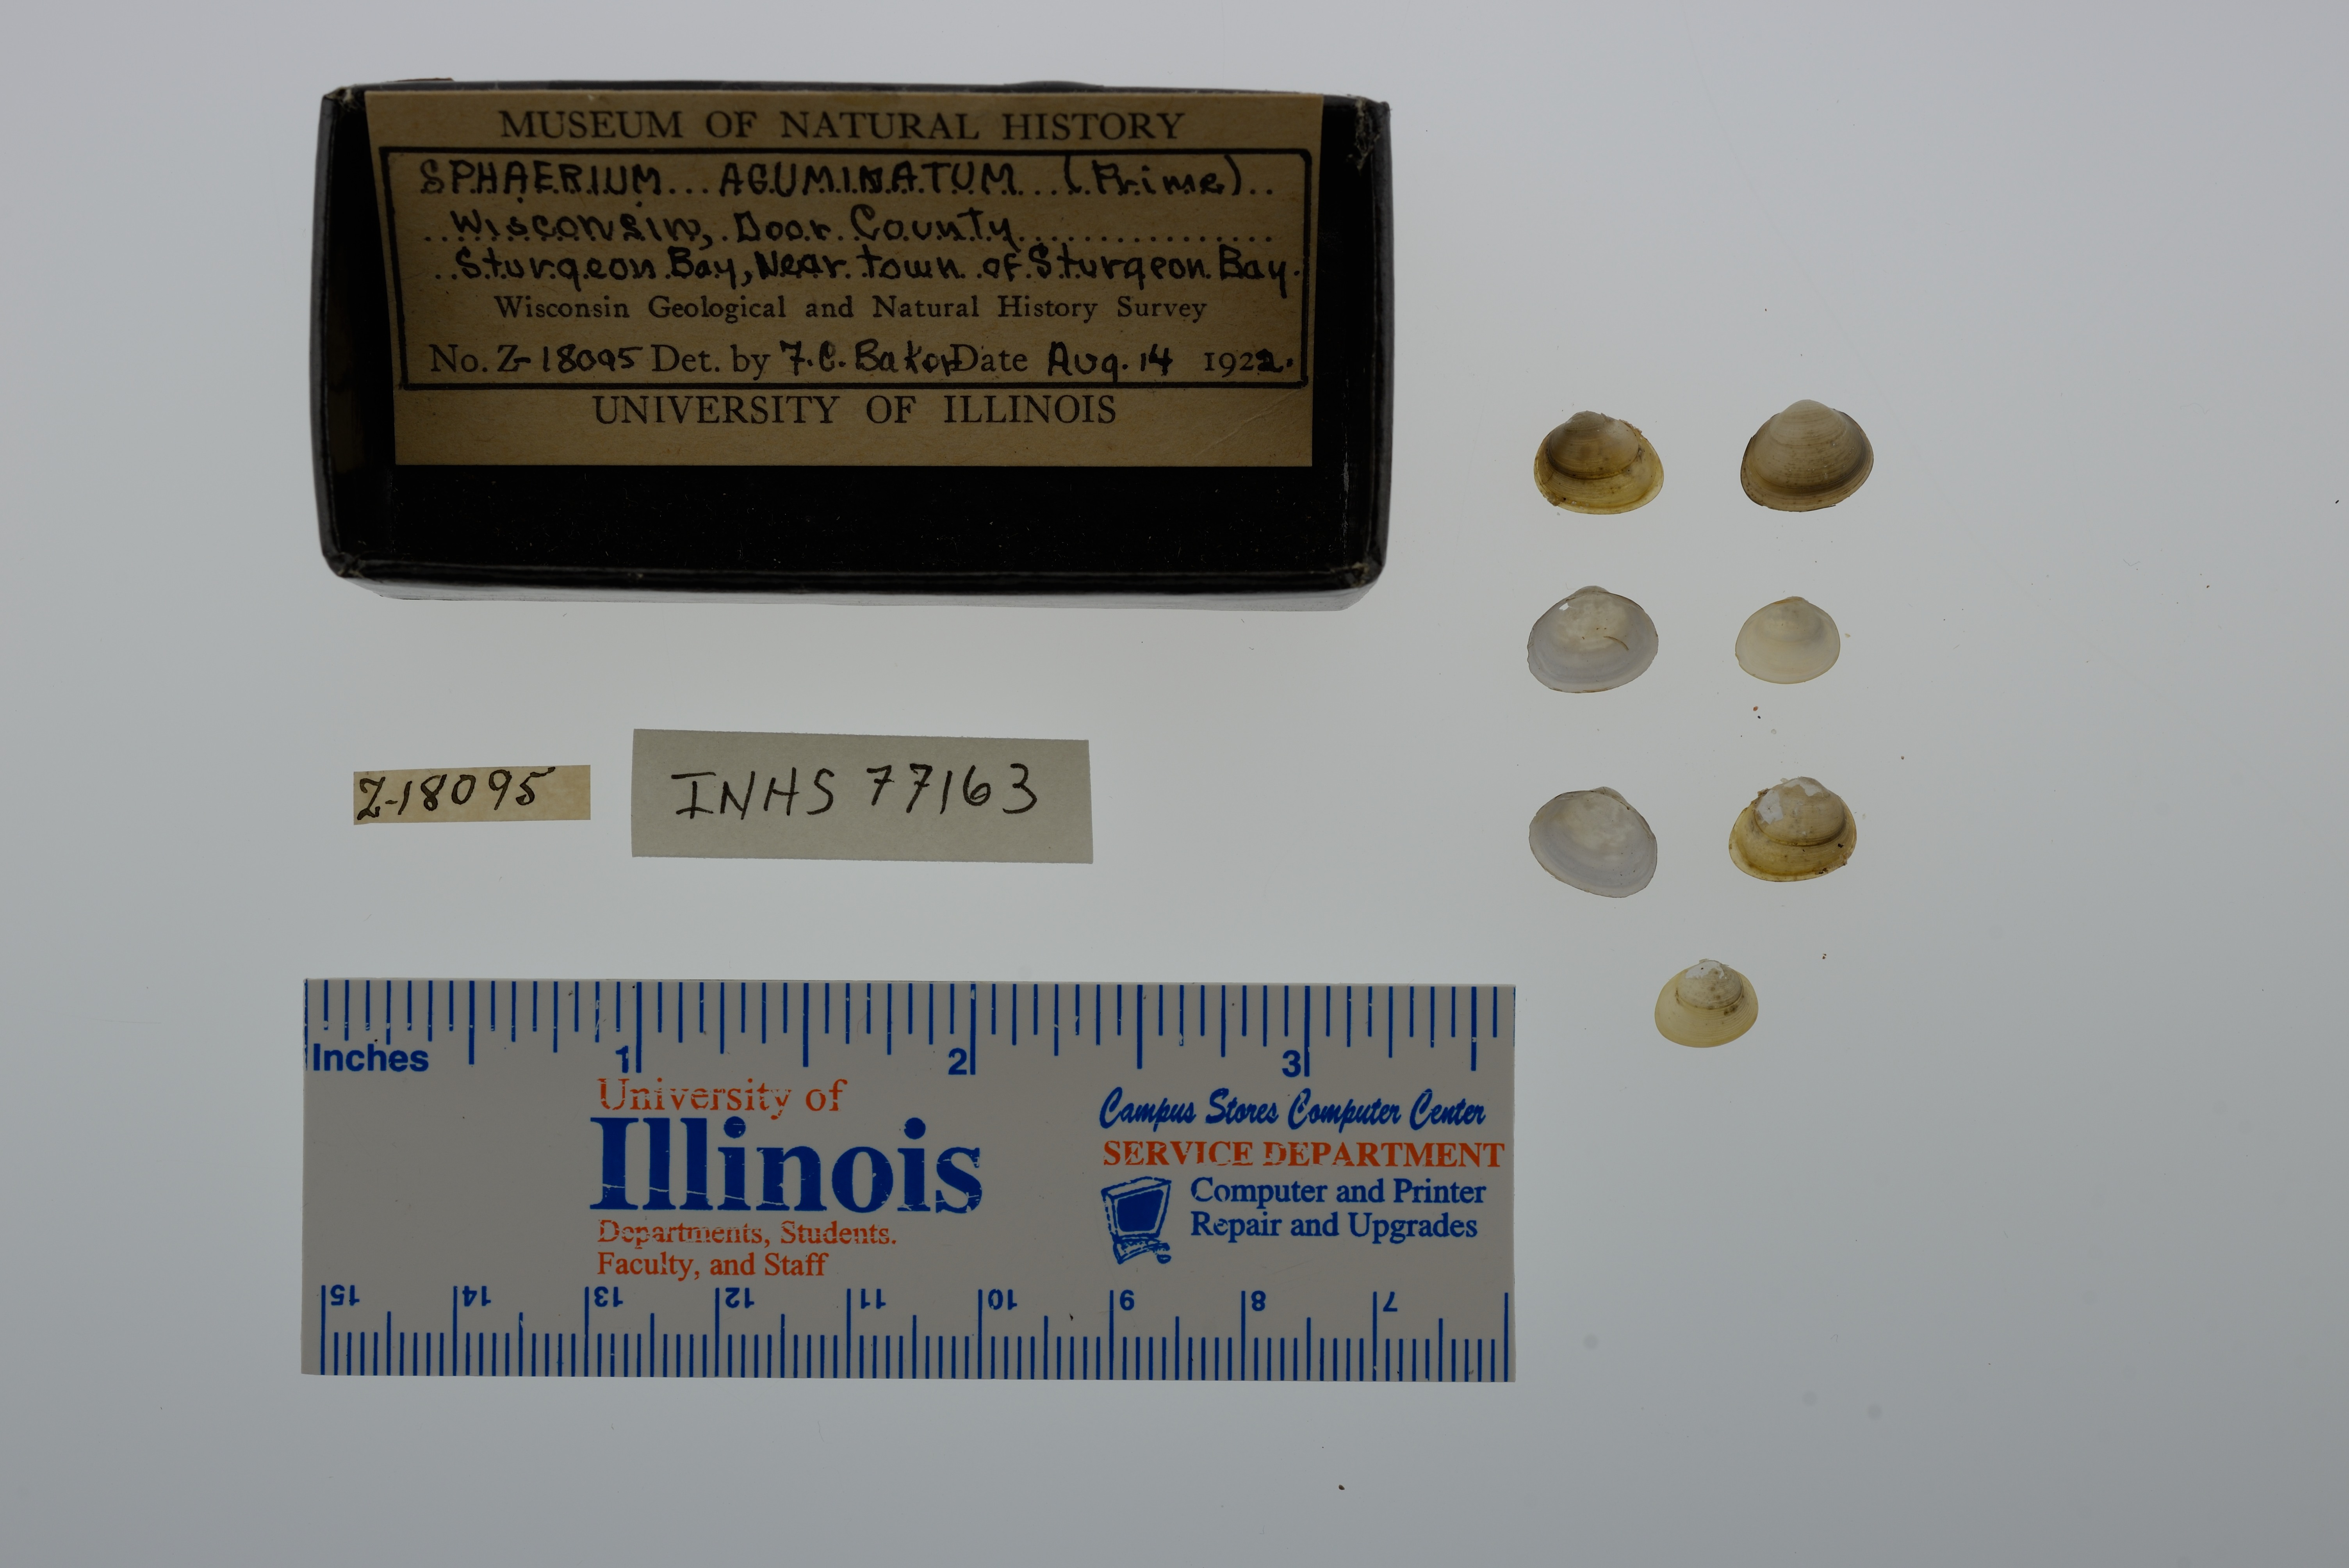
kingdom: Animalia
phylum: Mollusca
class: Bivalvia
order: Sphaeriida
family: Sphaeriidae
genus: Sphaerium
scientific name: Sphaerium striatinum
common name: Striated fingernailclam
